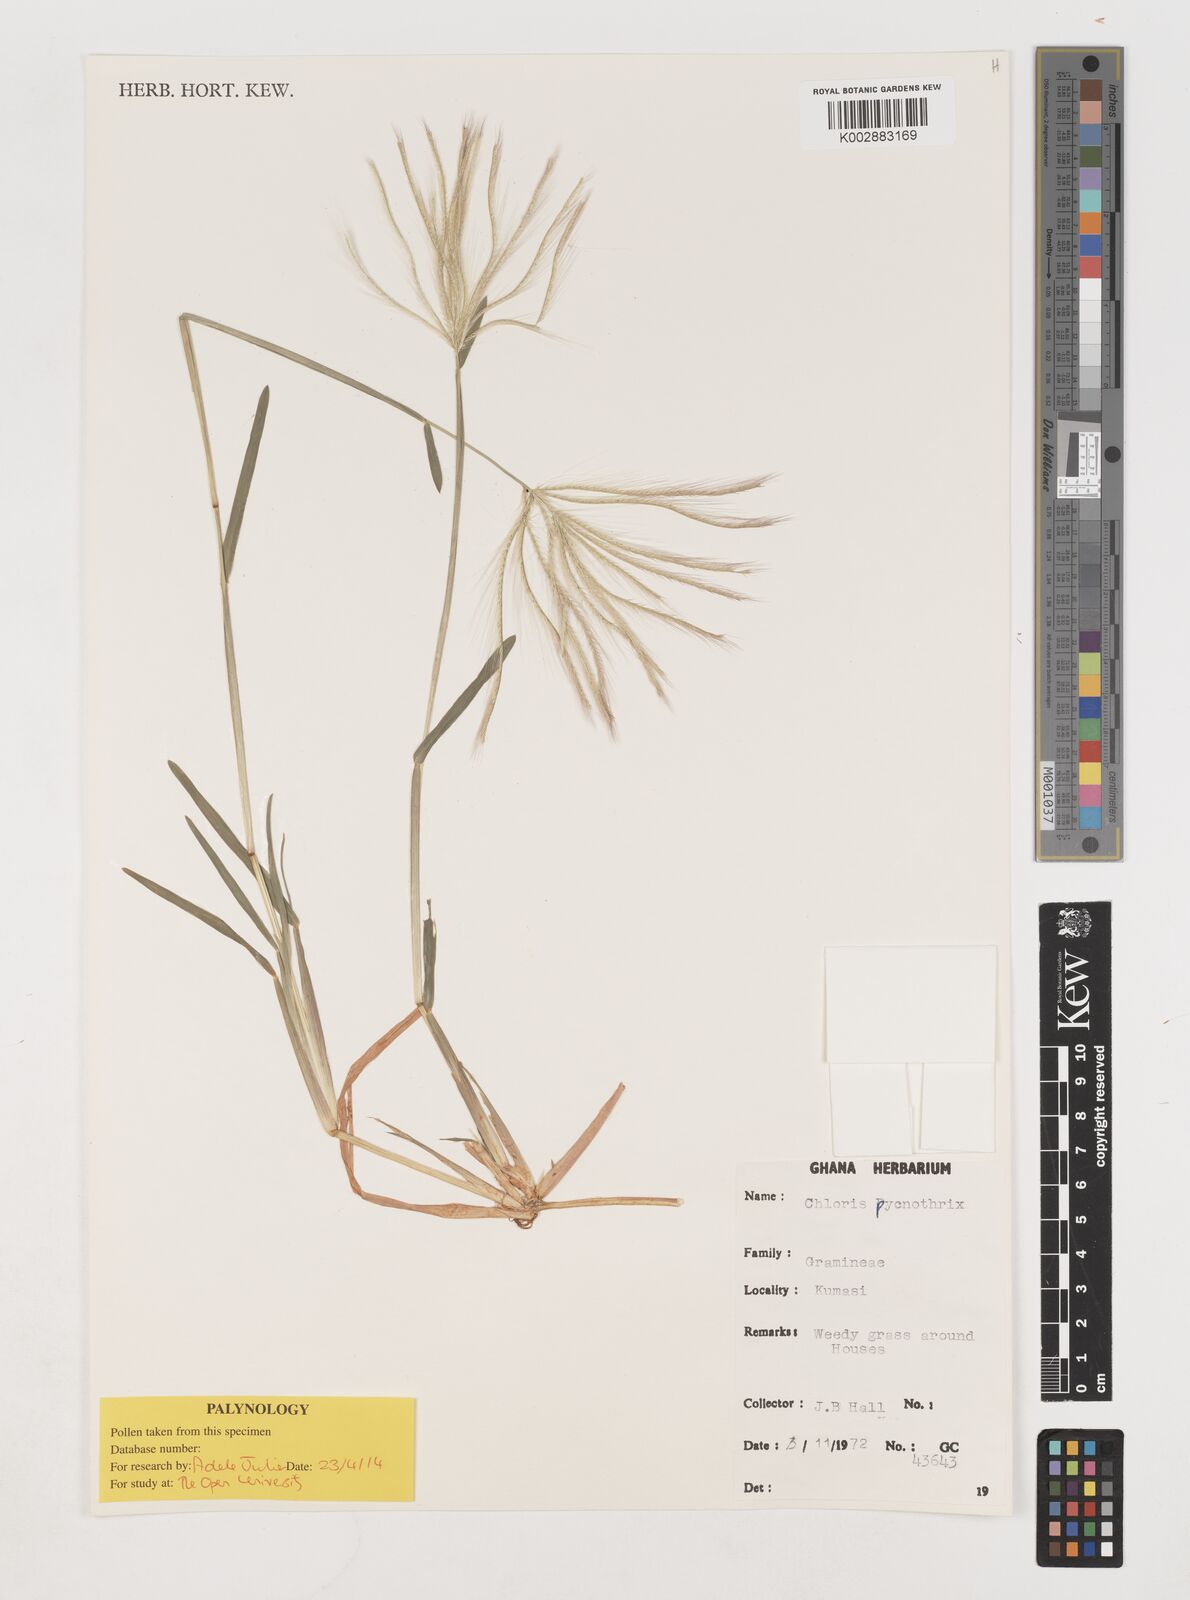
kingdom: Plantae
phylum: Tracheophyta
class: Liliopsida
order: Poales
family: Poaceae
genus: Chloris
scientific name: Chloris pycnothrix
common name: Spiderweb chloris
